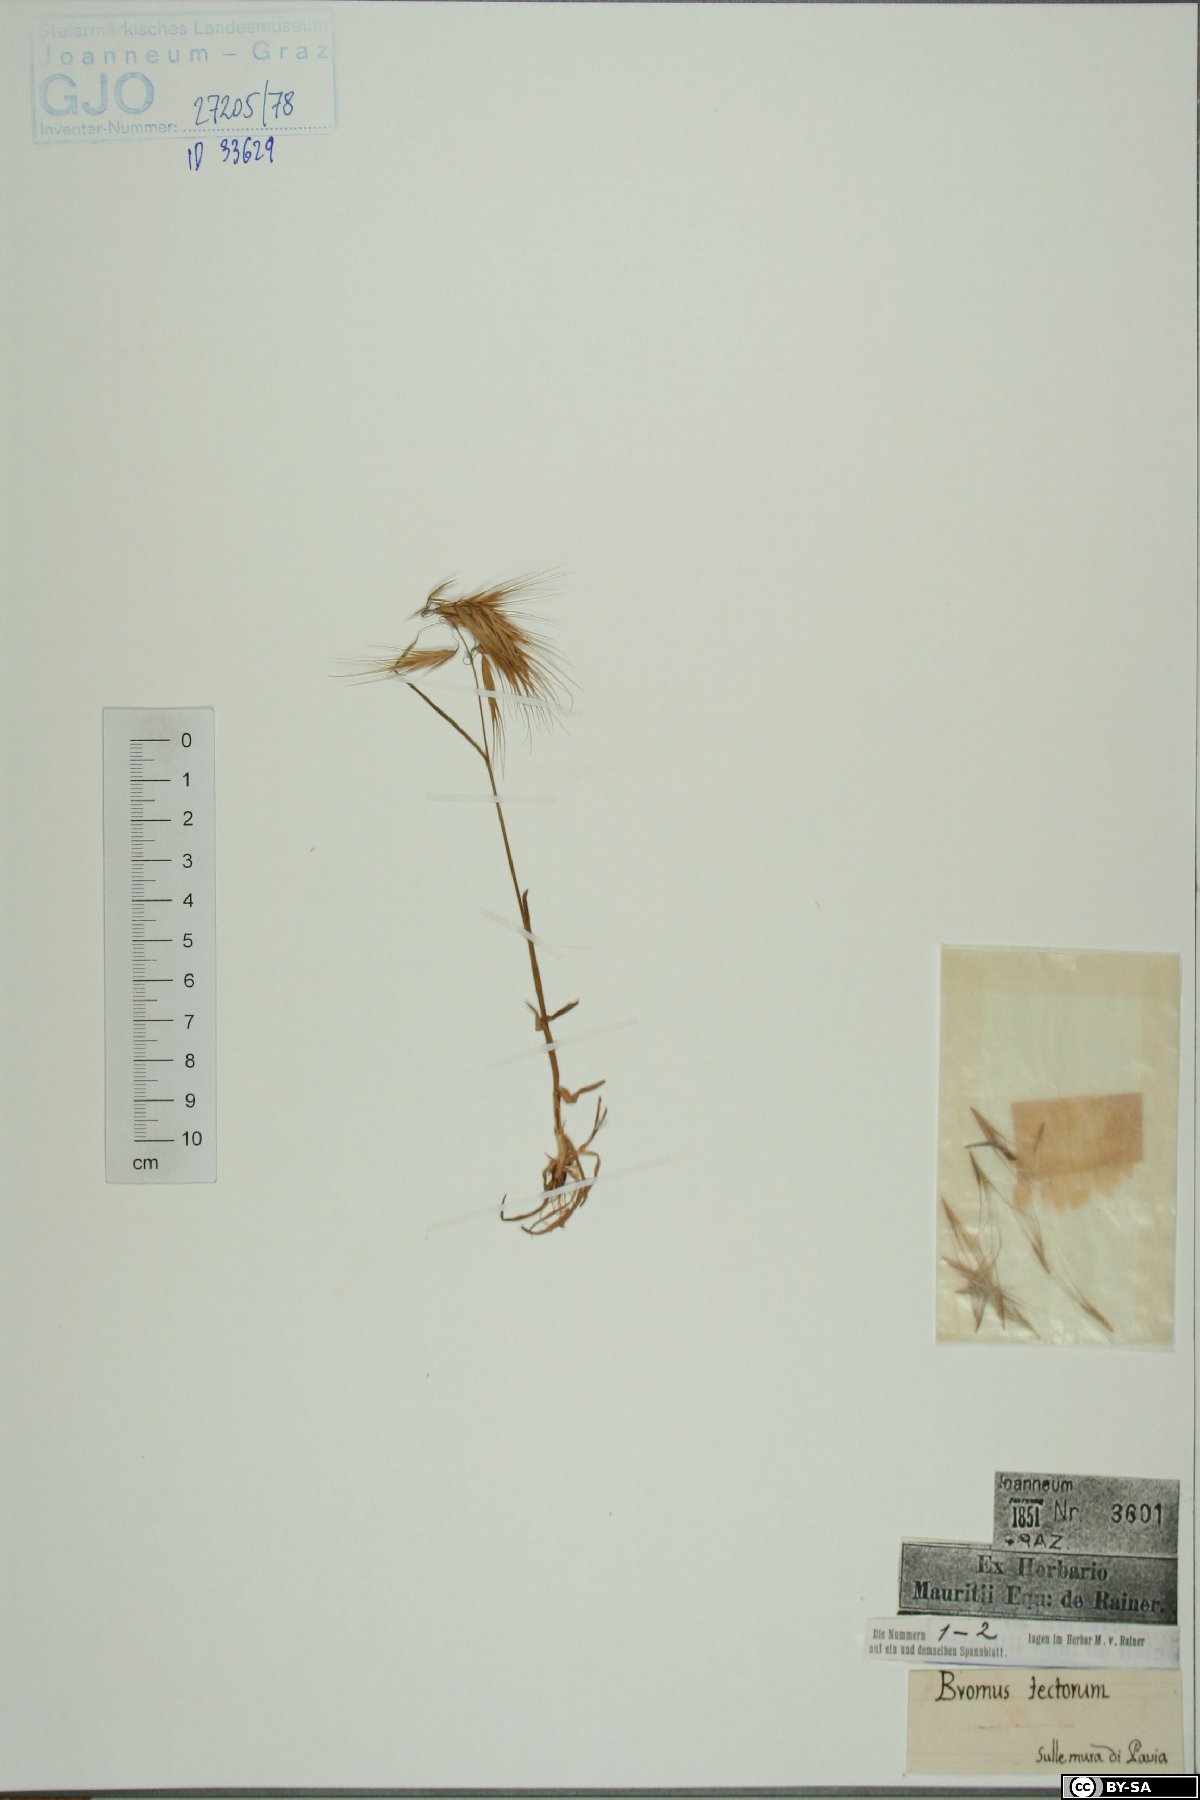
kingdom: Plantae
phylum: Tracheophyta
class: Liliopsida
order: Poales
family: Poaceae
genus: Bromus
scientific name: Bromus tectorum
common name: Cheatgrass
